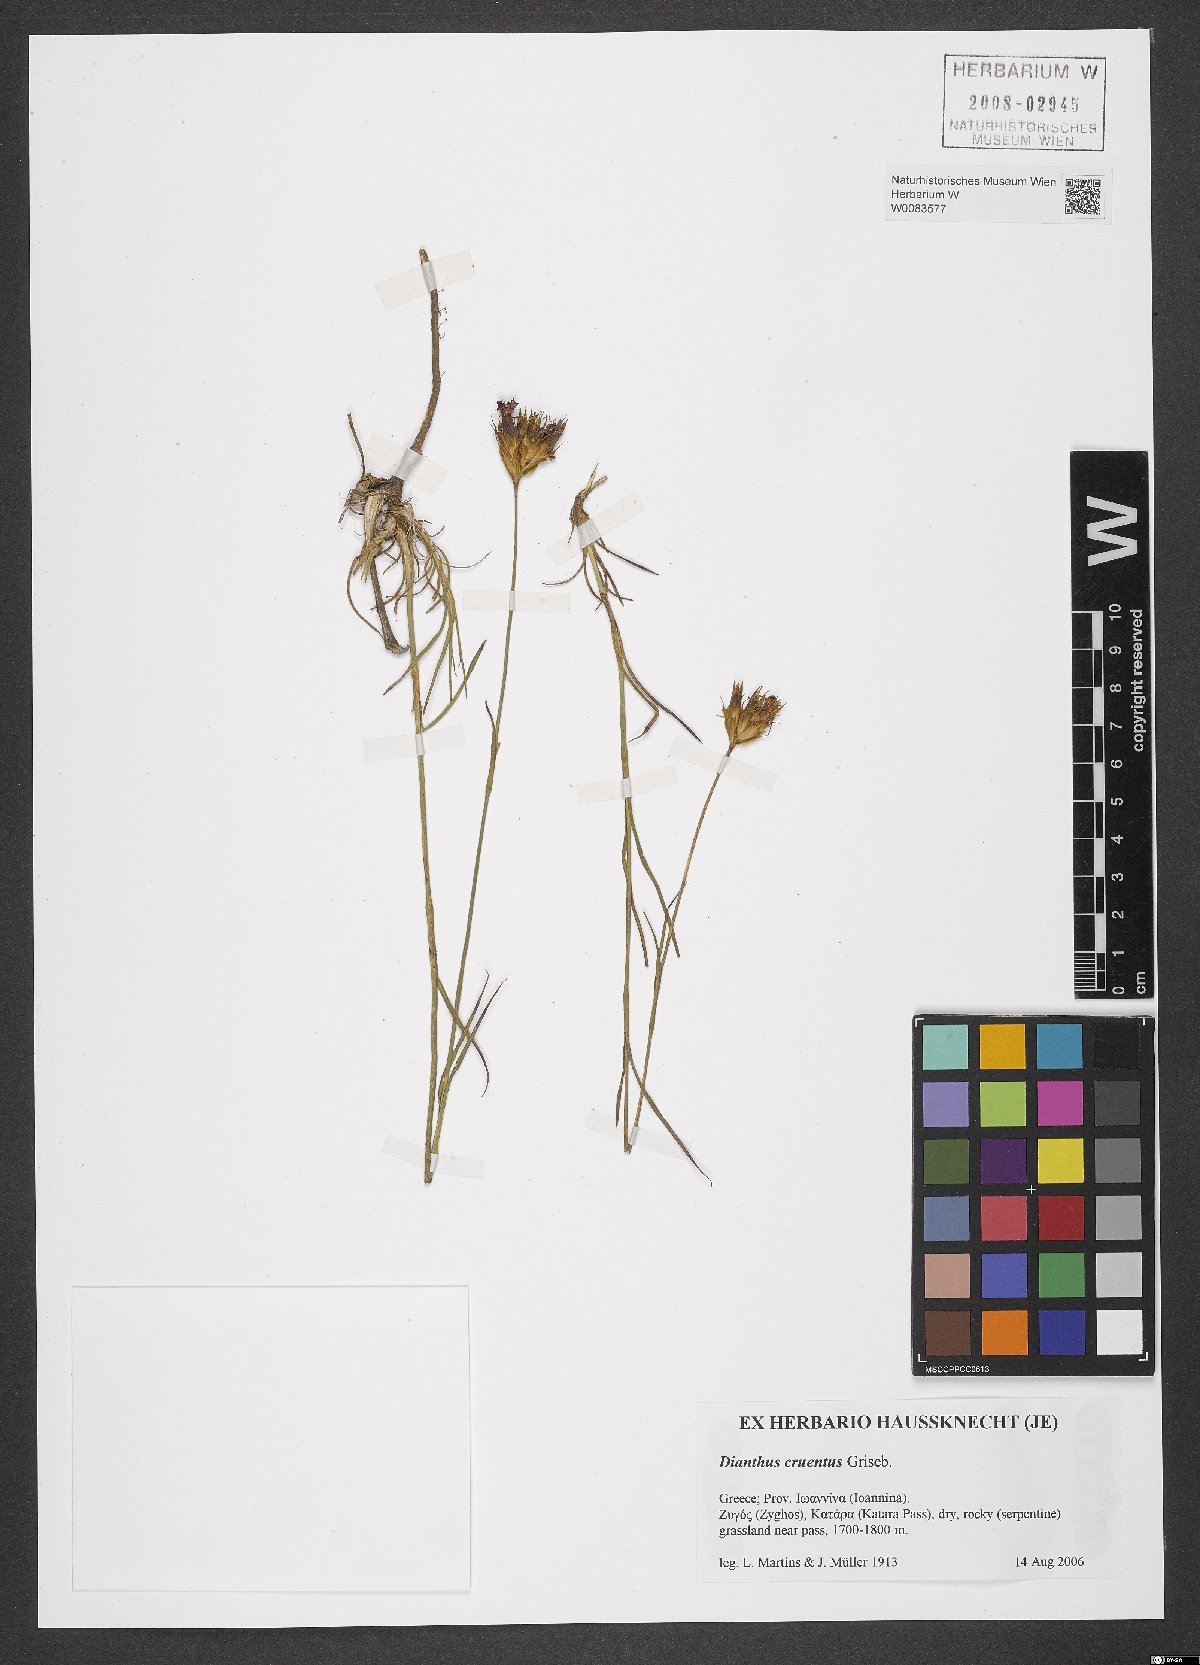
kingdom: Plantae
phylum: Tracheophyta
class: Magnoliopsida
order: Caryophyllales
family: Caryophyllaceae
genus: Dianthus
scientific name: Dianthus cruentus
